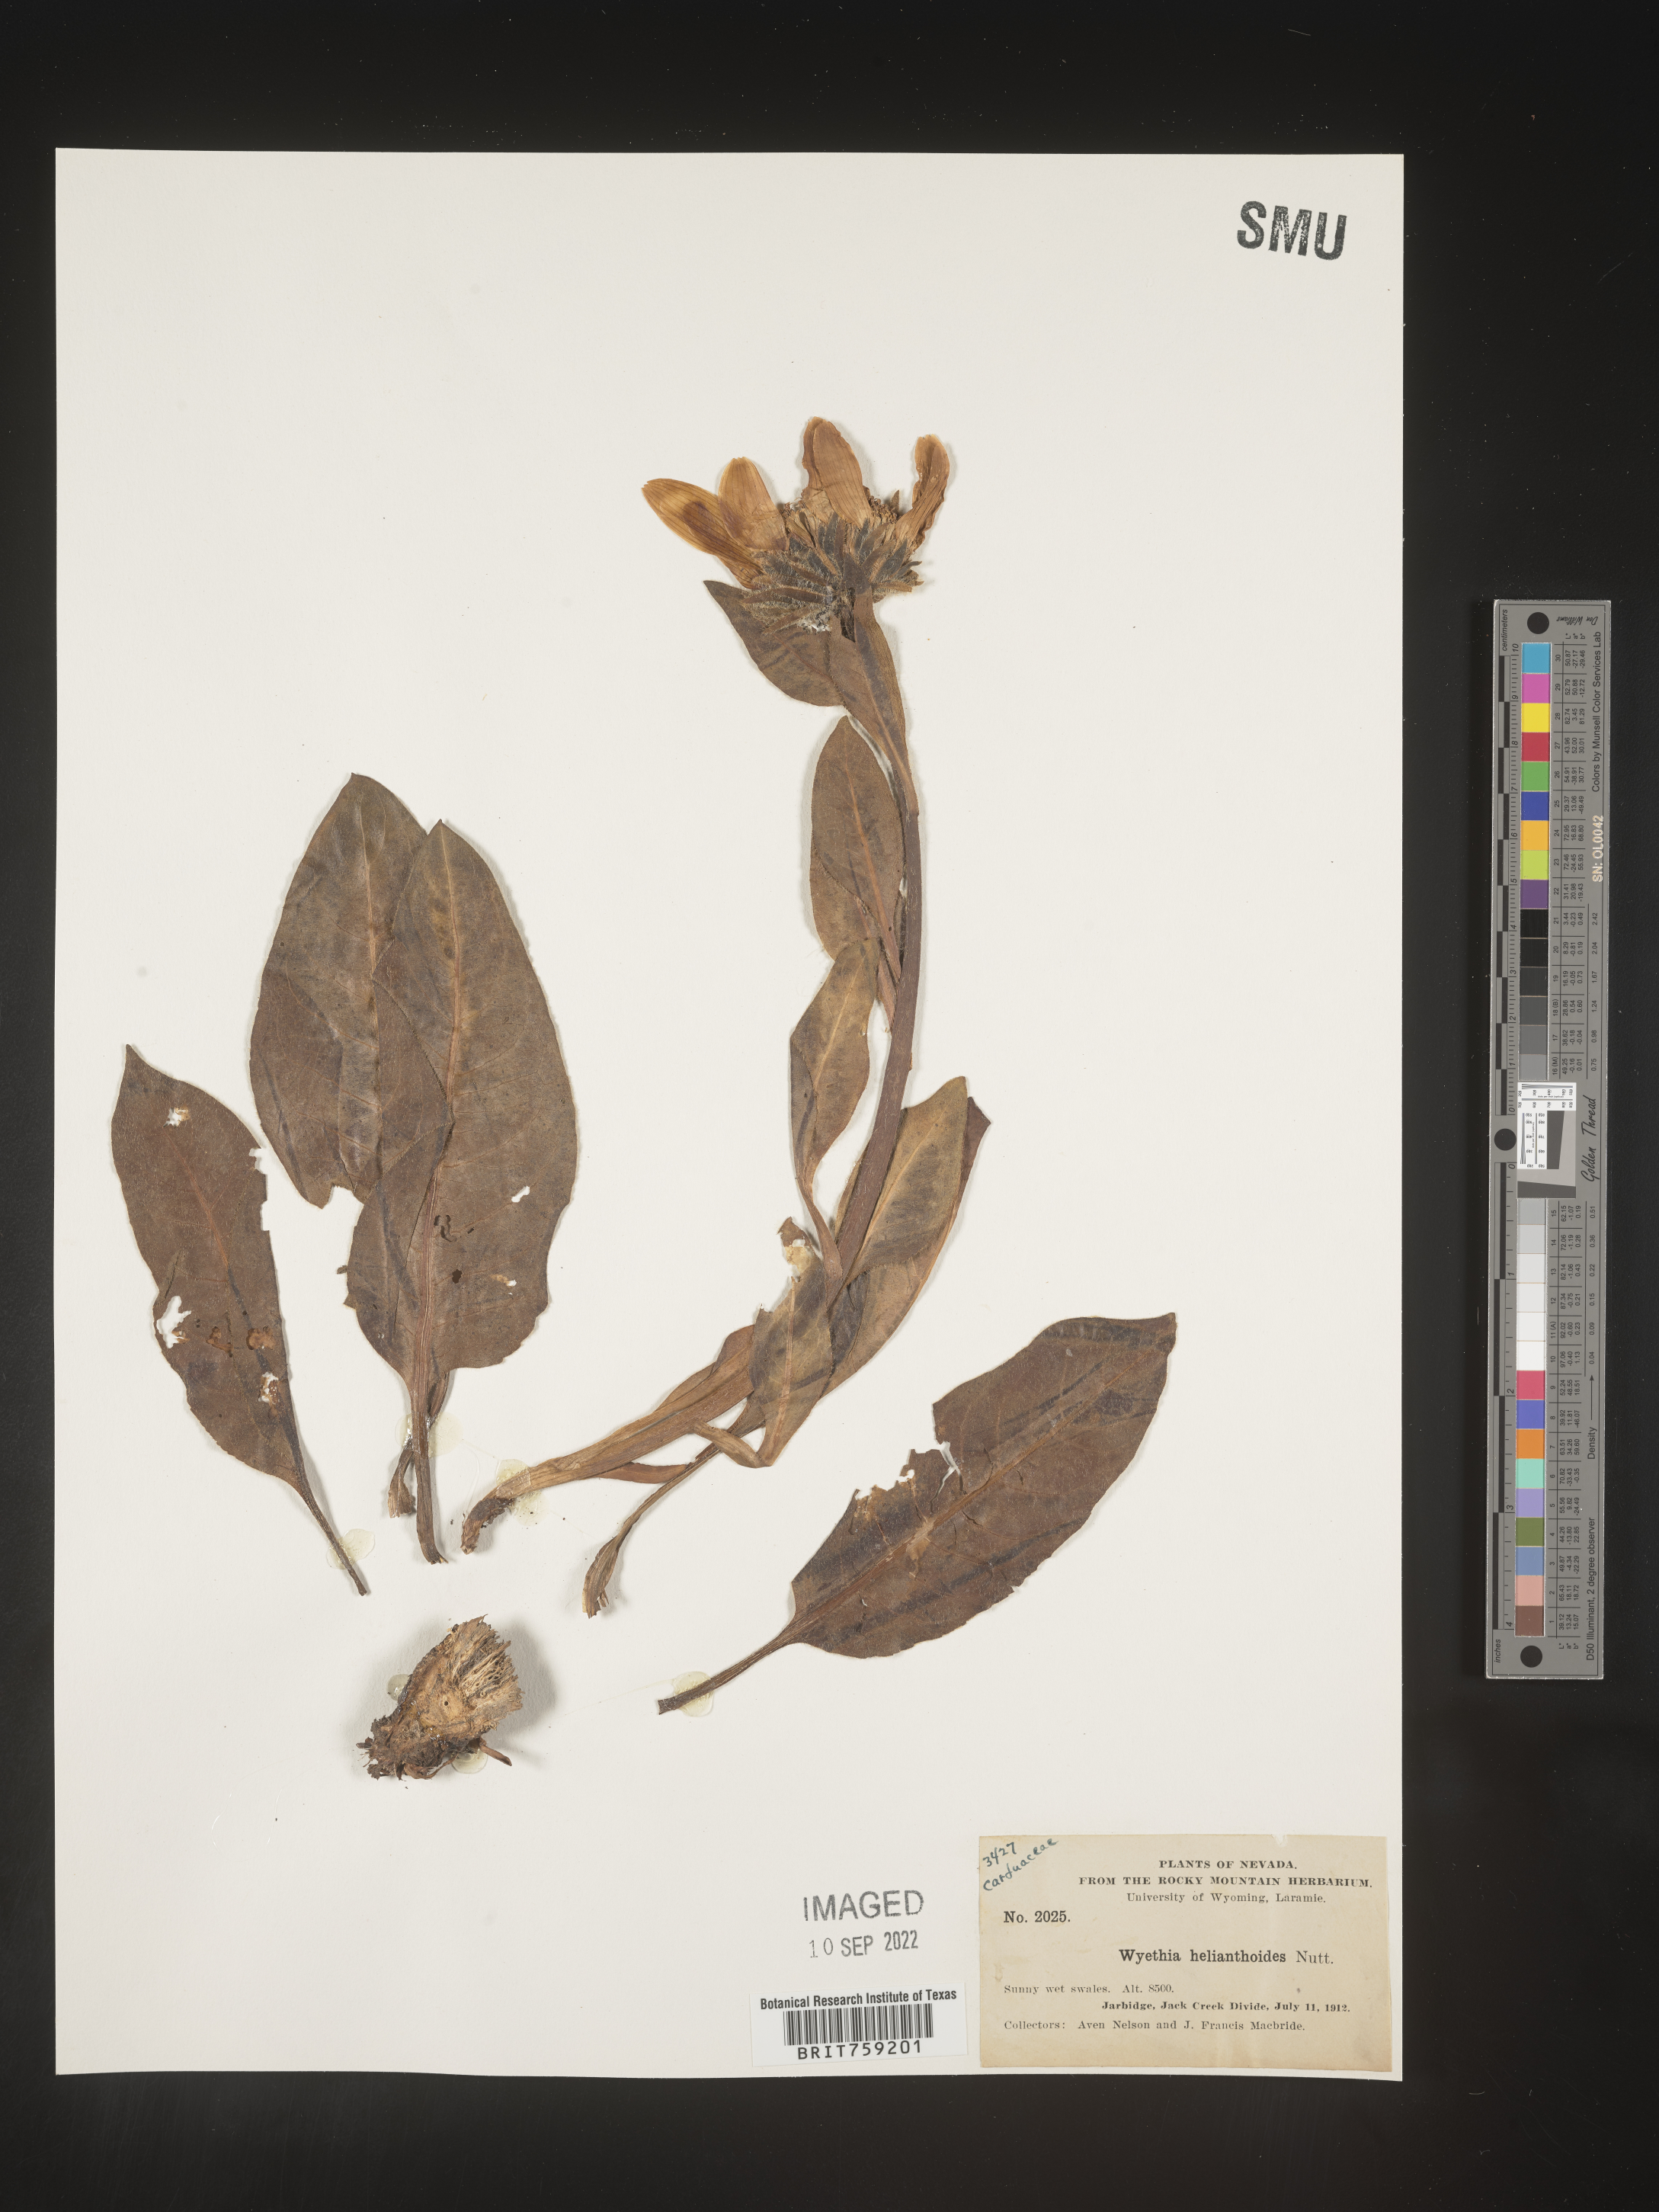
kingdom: Plantae
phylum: Tracheophyta
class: Magnoliopsida
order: Asterales
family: Asteraceae
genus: Wyethia
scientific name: Wyethia helianthoides
